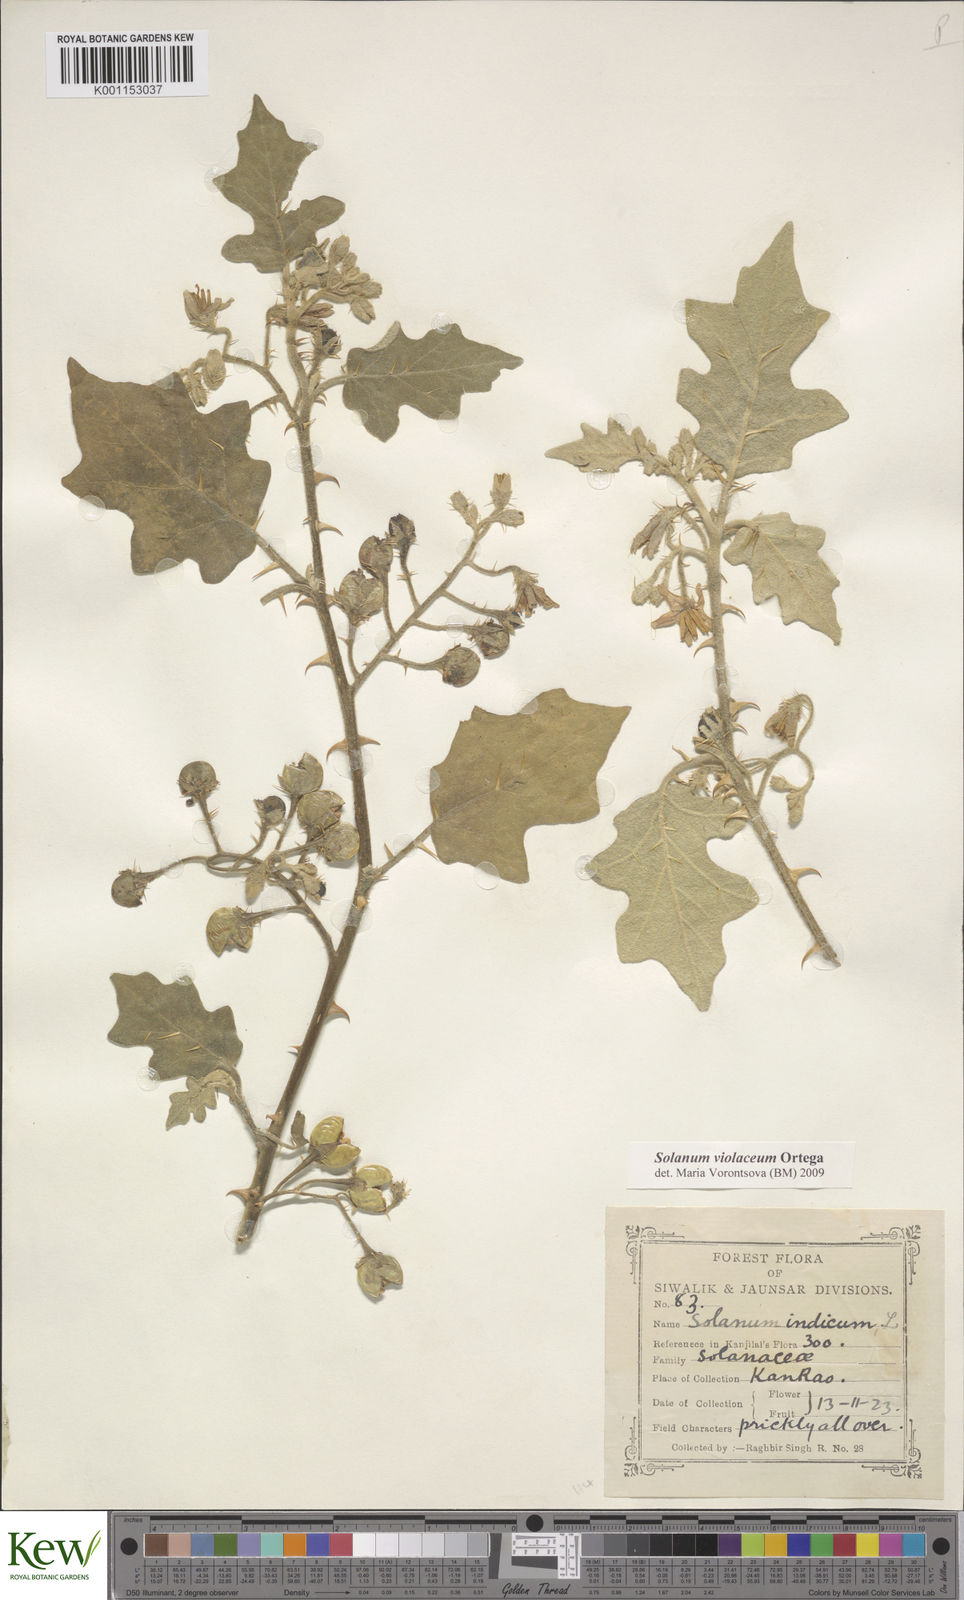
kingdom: Plantae
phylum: Tracheophyta
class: Magnoliopsida
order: Solanales
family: Solanaceae
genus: Solanum
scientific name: Solanum violaceum
